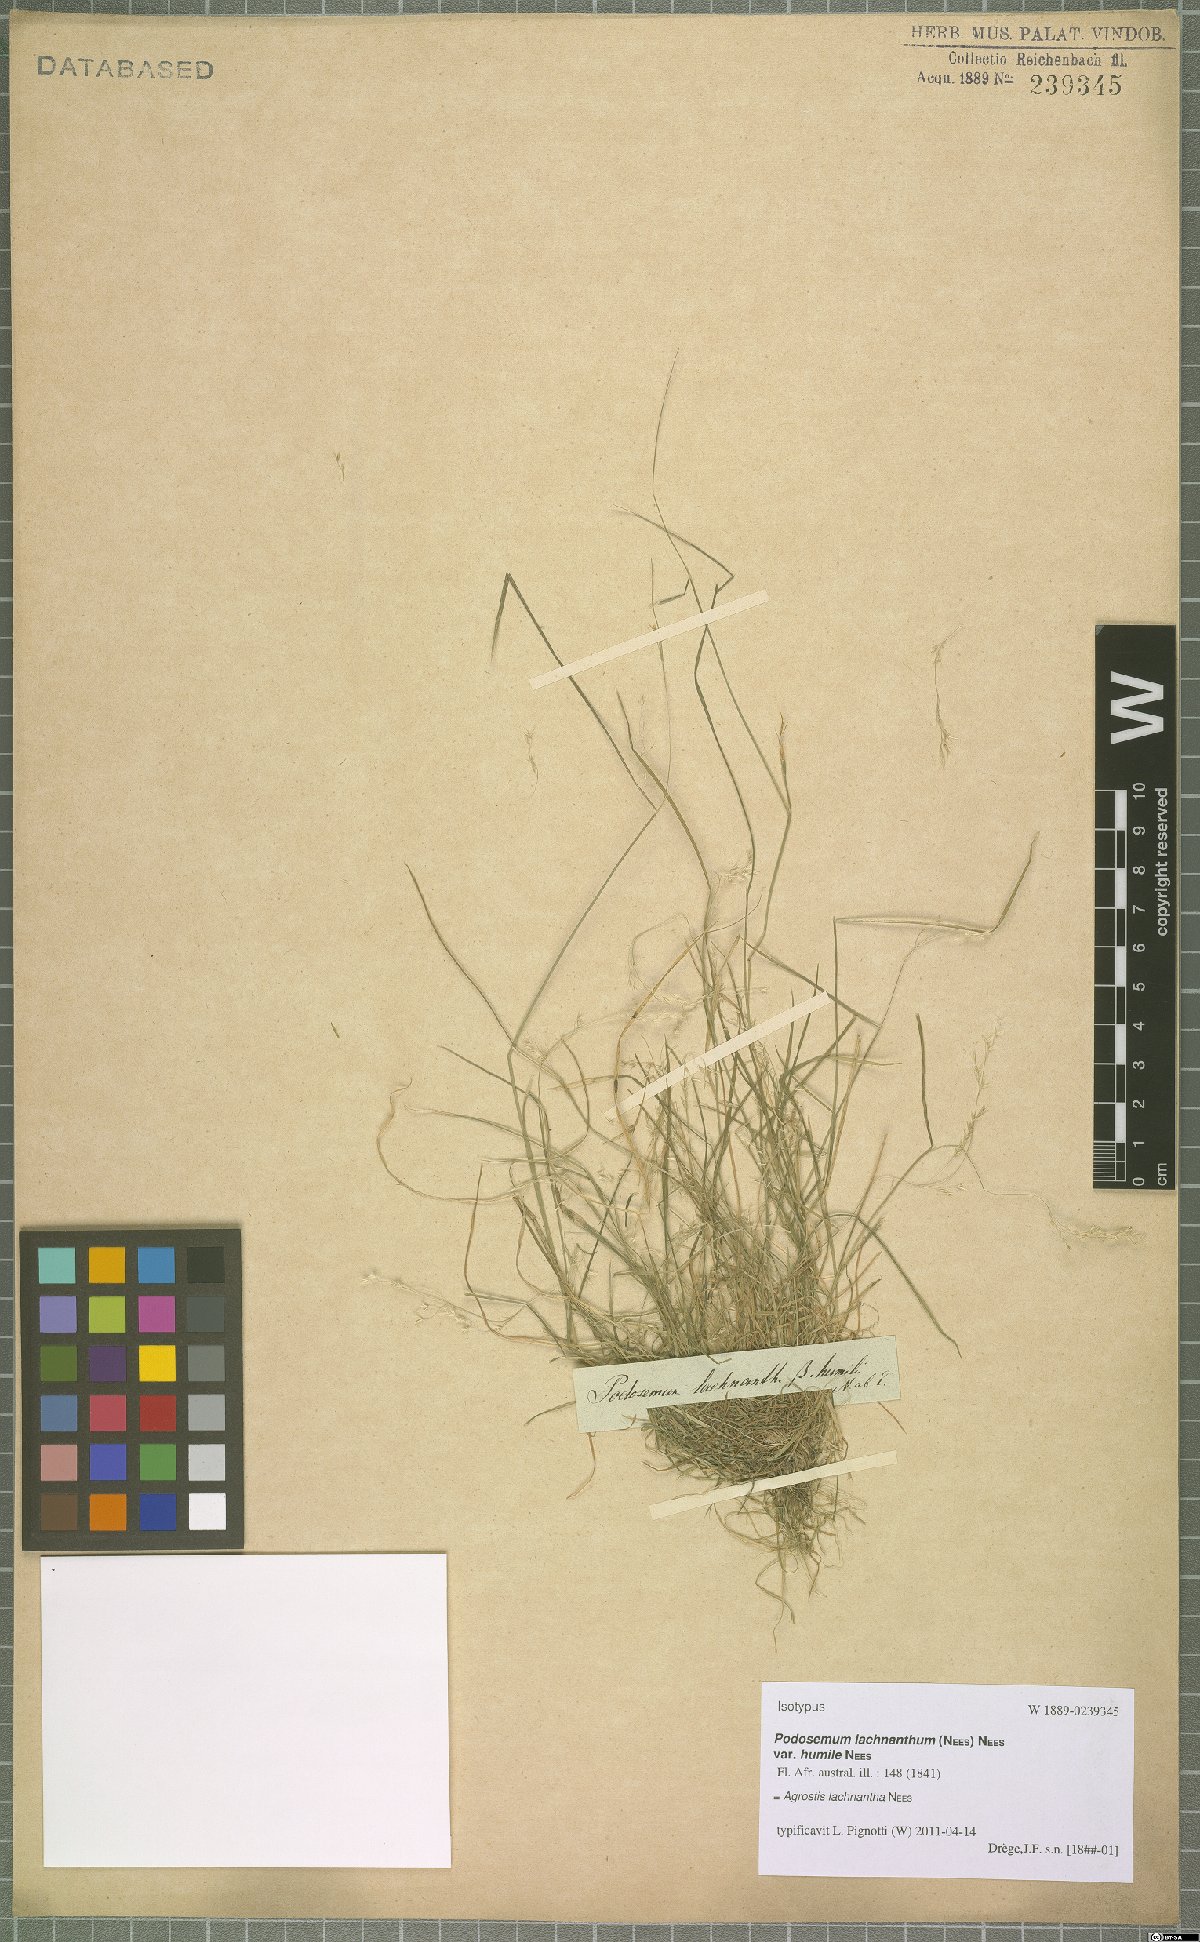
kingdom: Plantae
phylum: Tracheophyta
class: Liliopsida
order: Poales
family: Poaceae
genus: Lachnagrostis
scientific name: Lachnagrostis lachnantha
